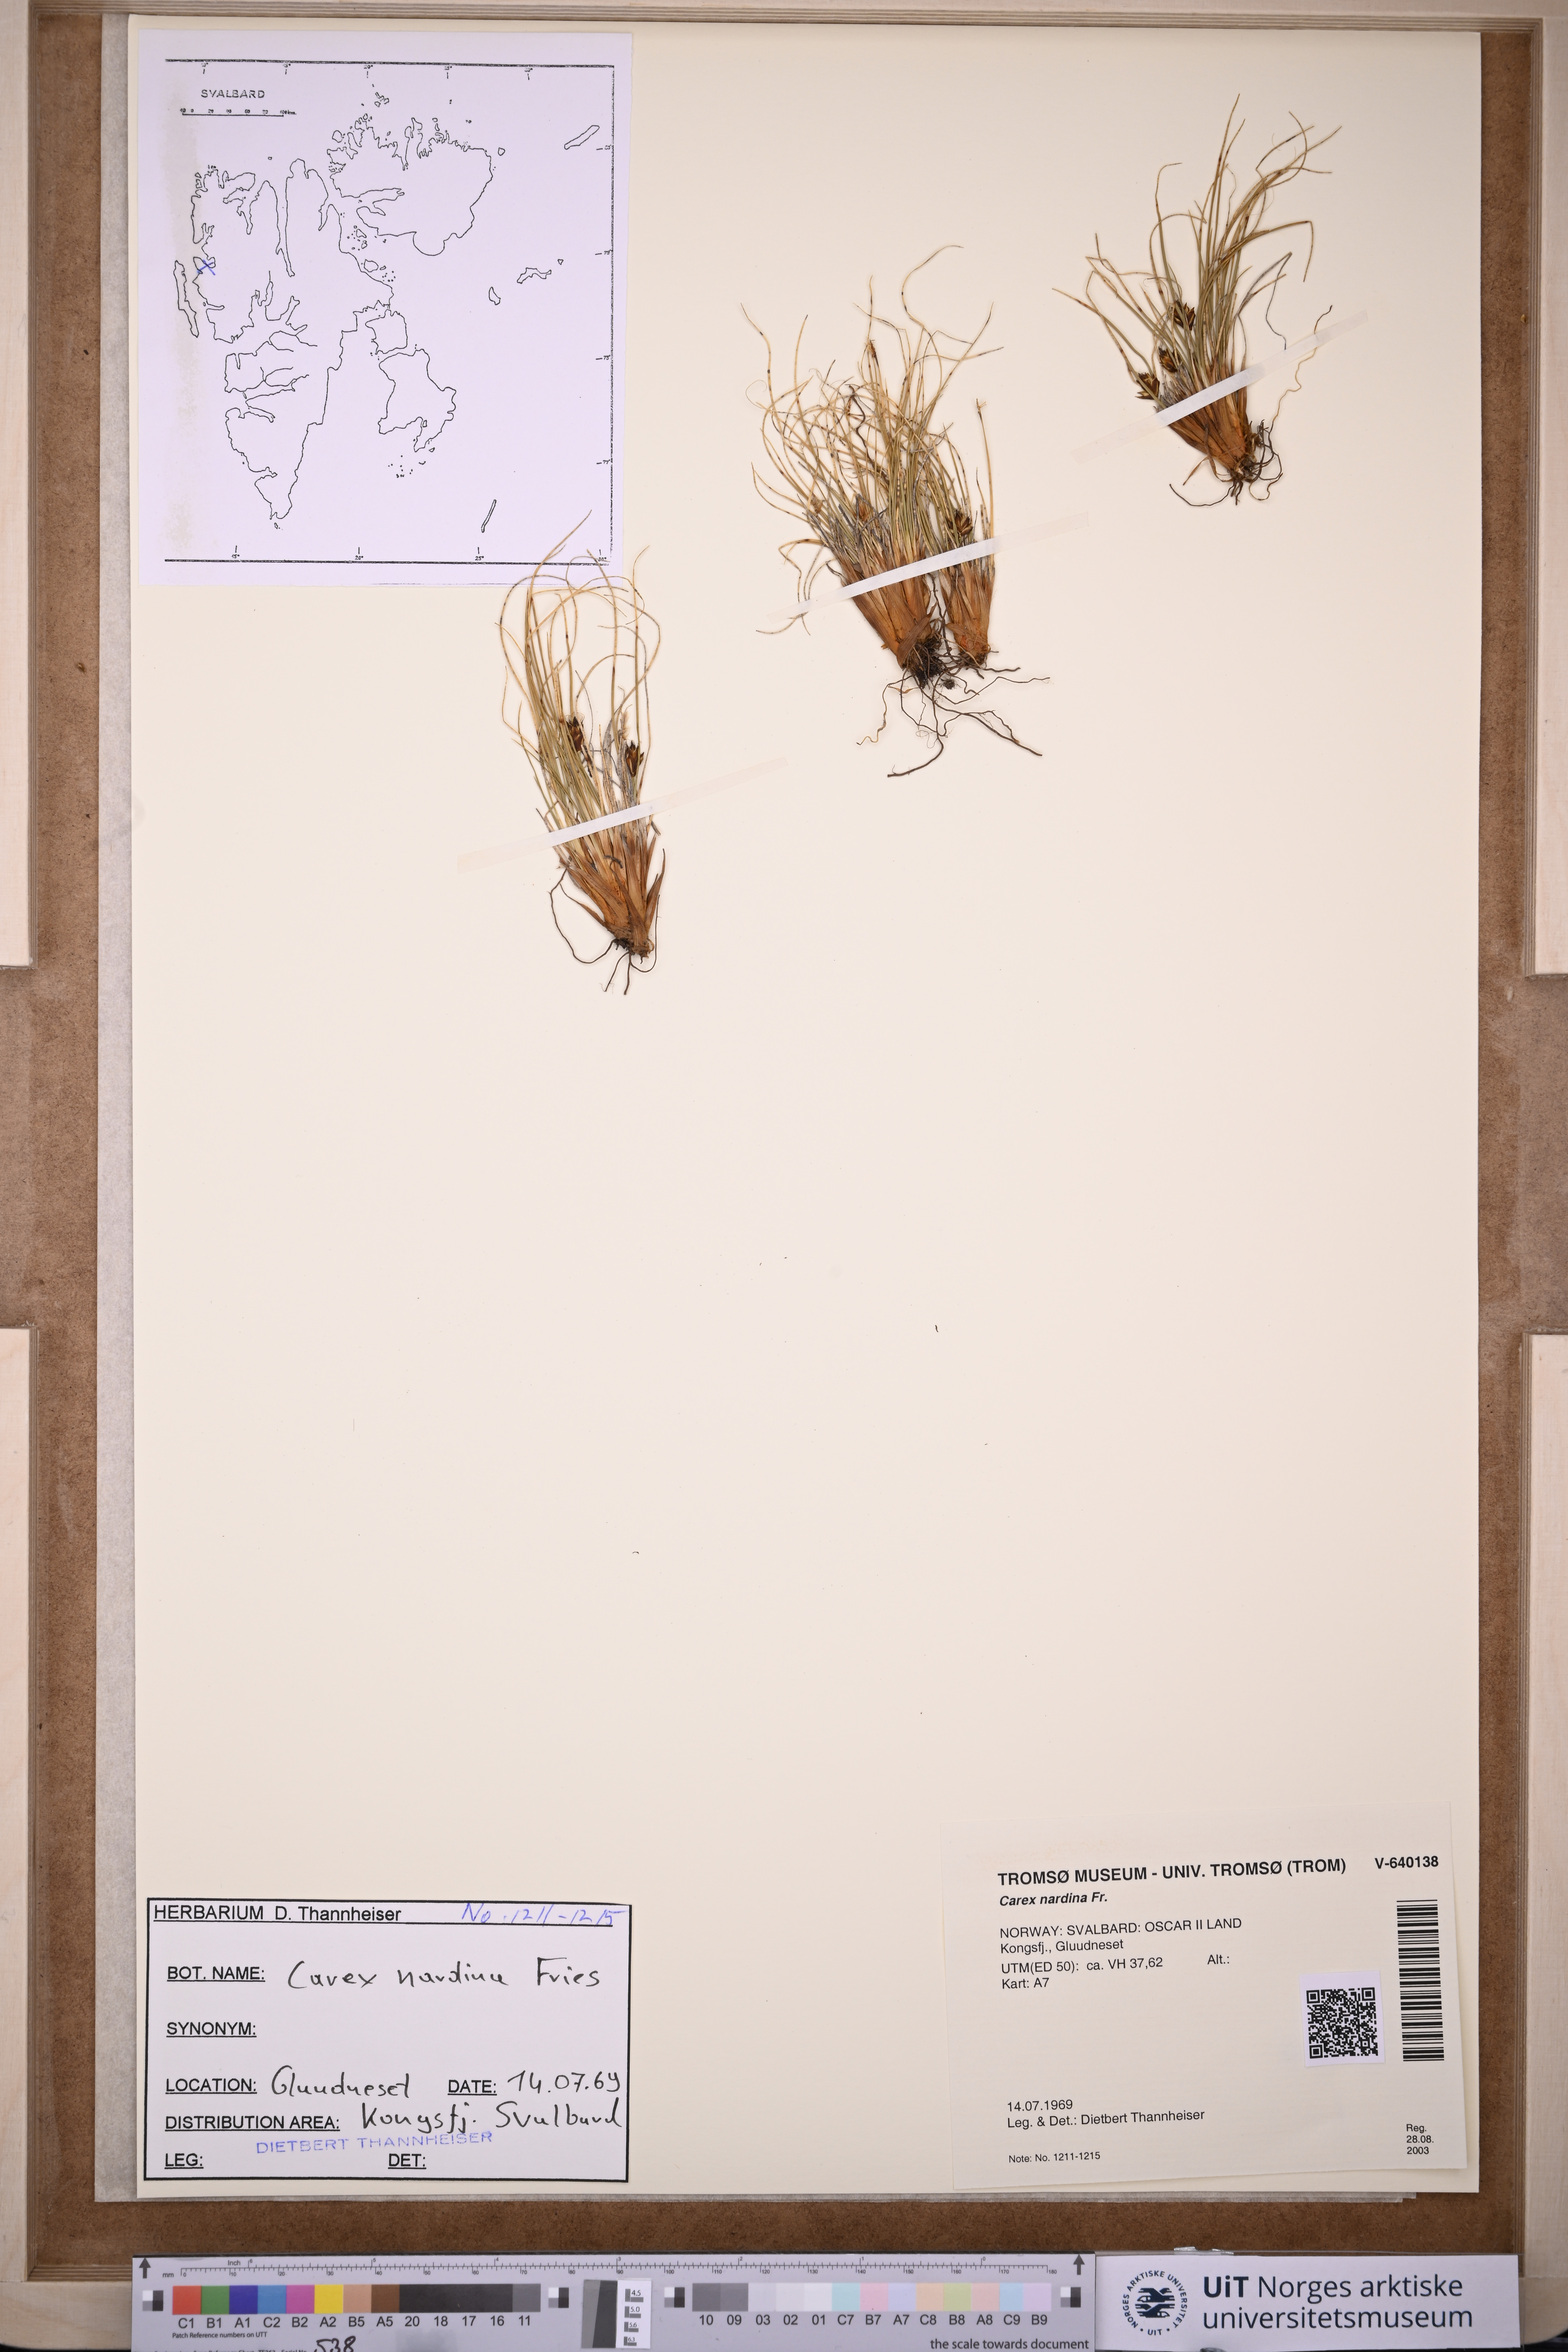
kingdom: Plantae
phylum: Tracheophyta
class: Liliopsida
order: Poales
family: Cyperaceae
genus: Carex
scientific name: Carex nardina
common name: Nard sedge
